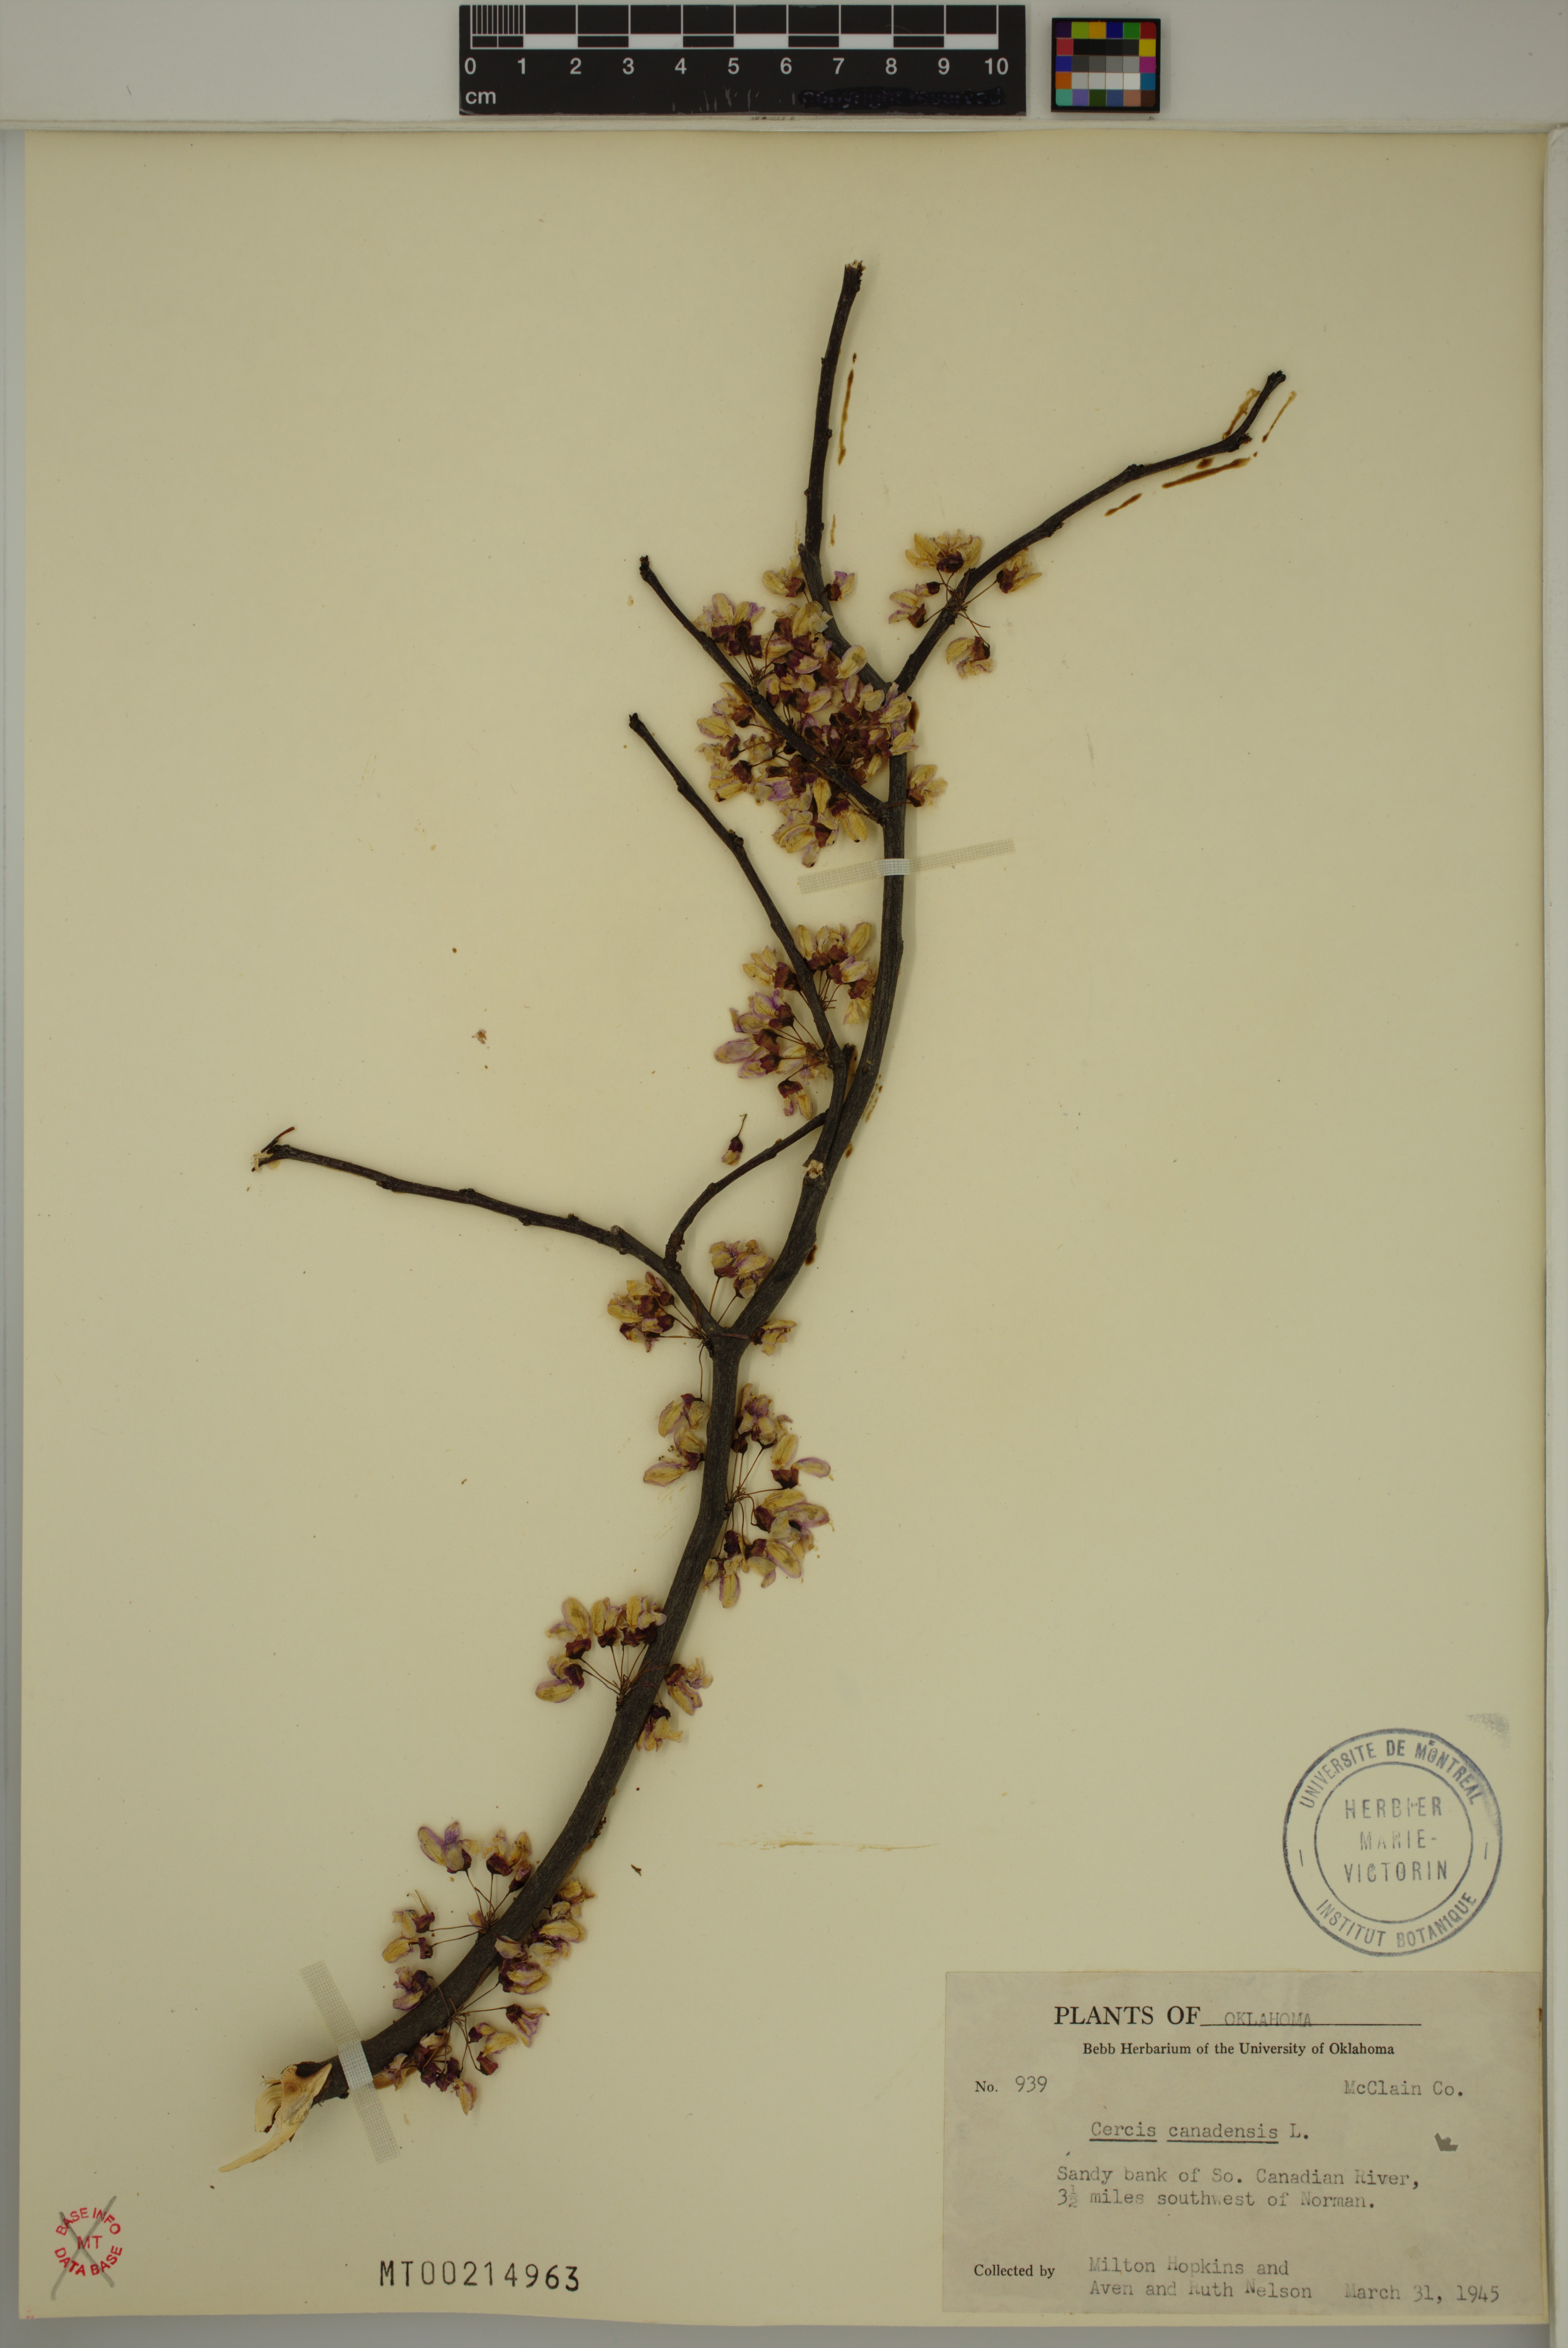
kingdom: Plantae
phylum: Tracheophyta
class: Magnoliopsida
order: Fabales
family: Fabaceae
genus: Cercis
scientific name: Cercis canadensis
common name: Eastern redbud
